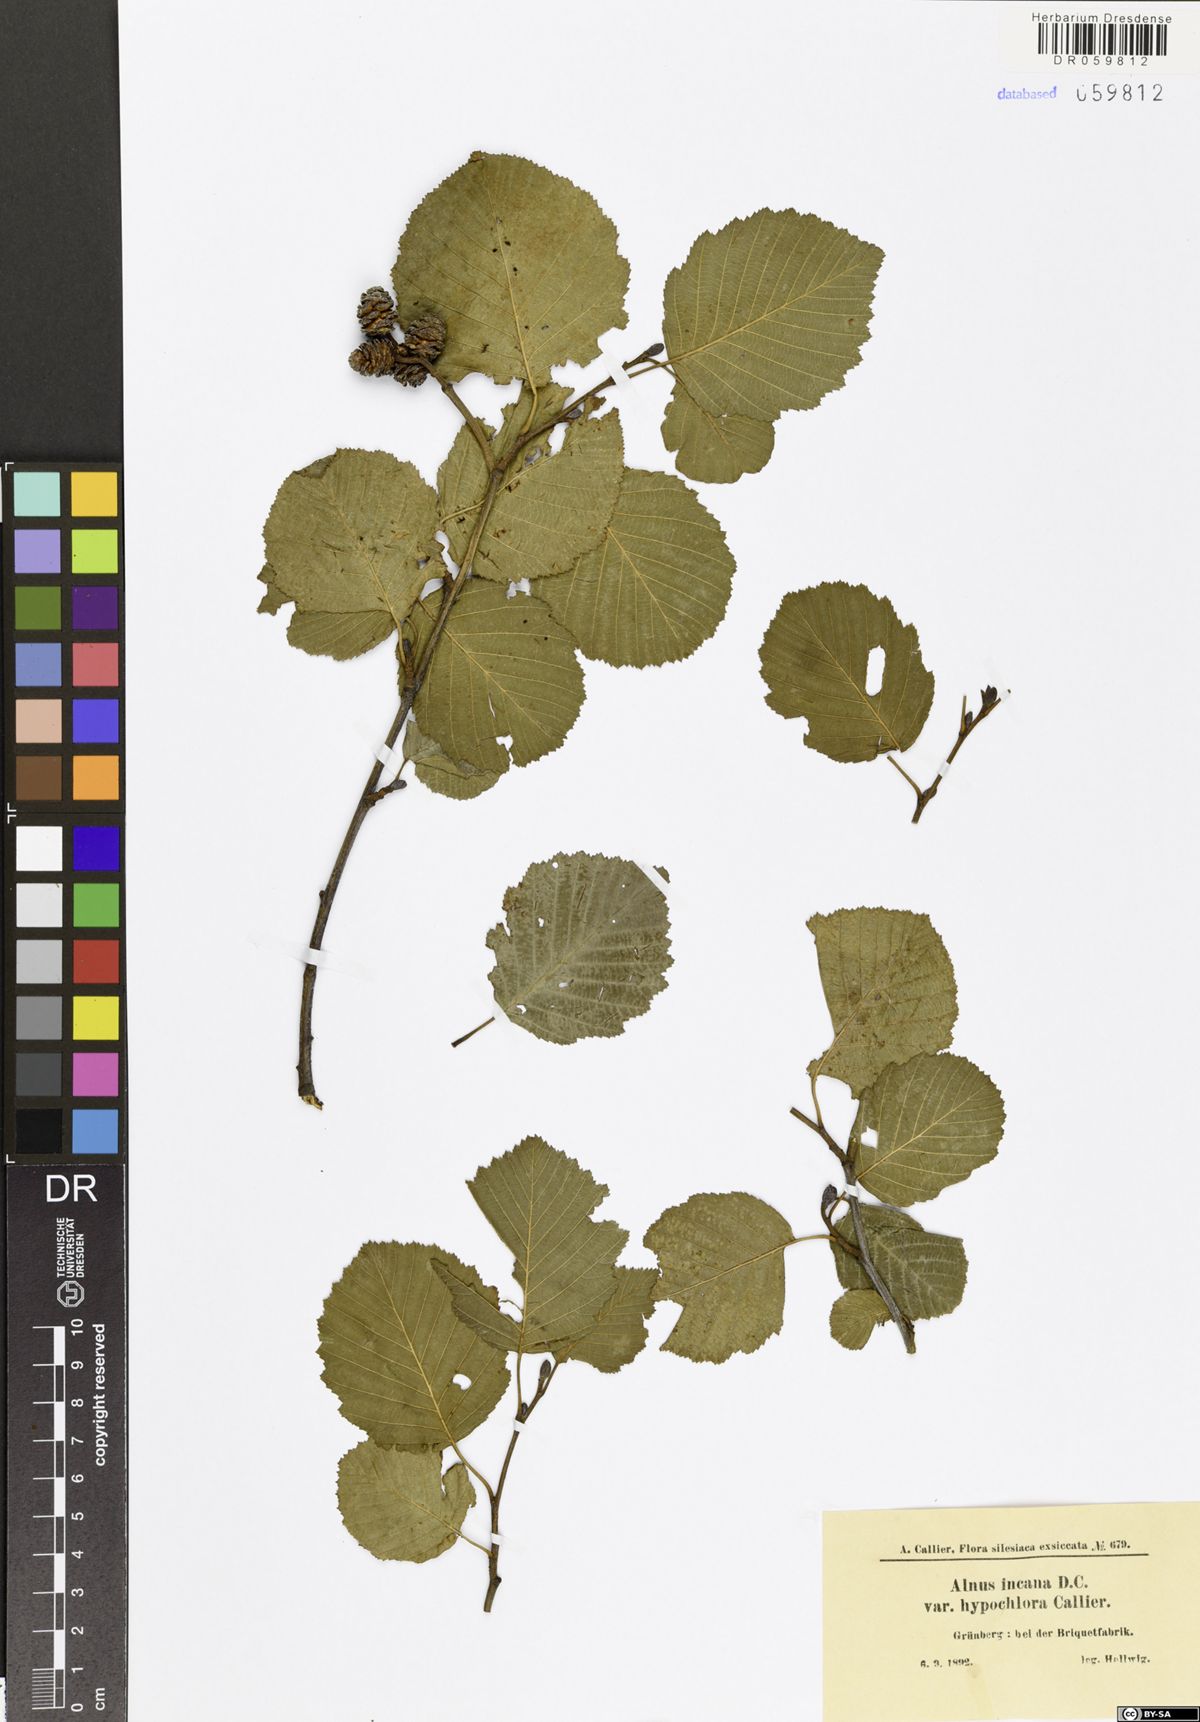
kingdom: Plantae
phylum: Tracheophyta
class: Magnoliopsida
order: Fagales
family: Betulaceae
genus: Alnus
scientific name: Alnus incana
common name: Grey alder
